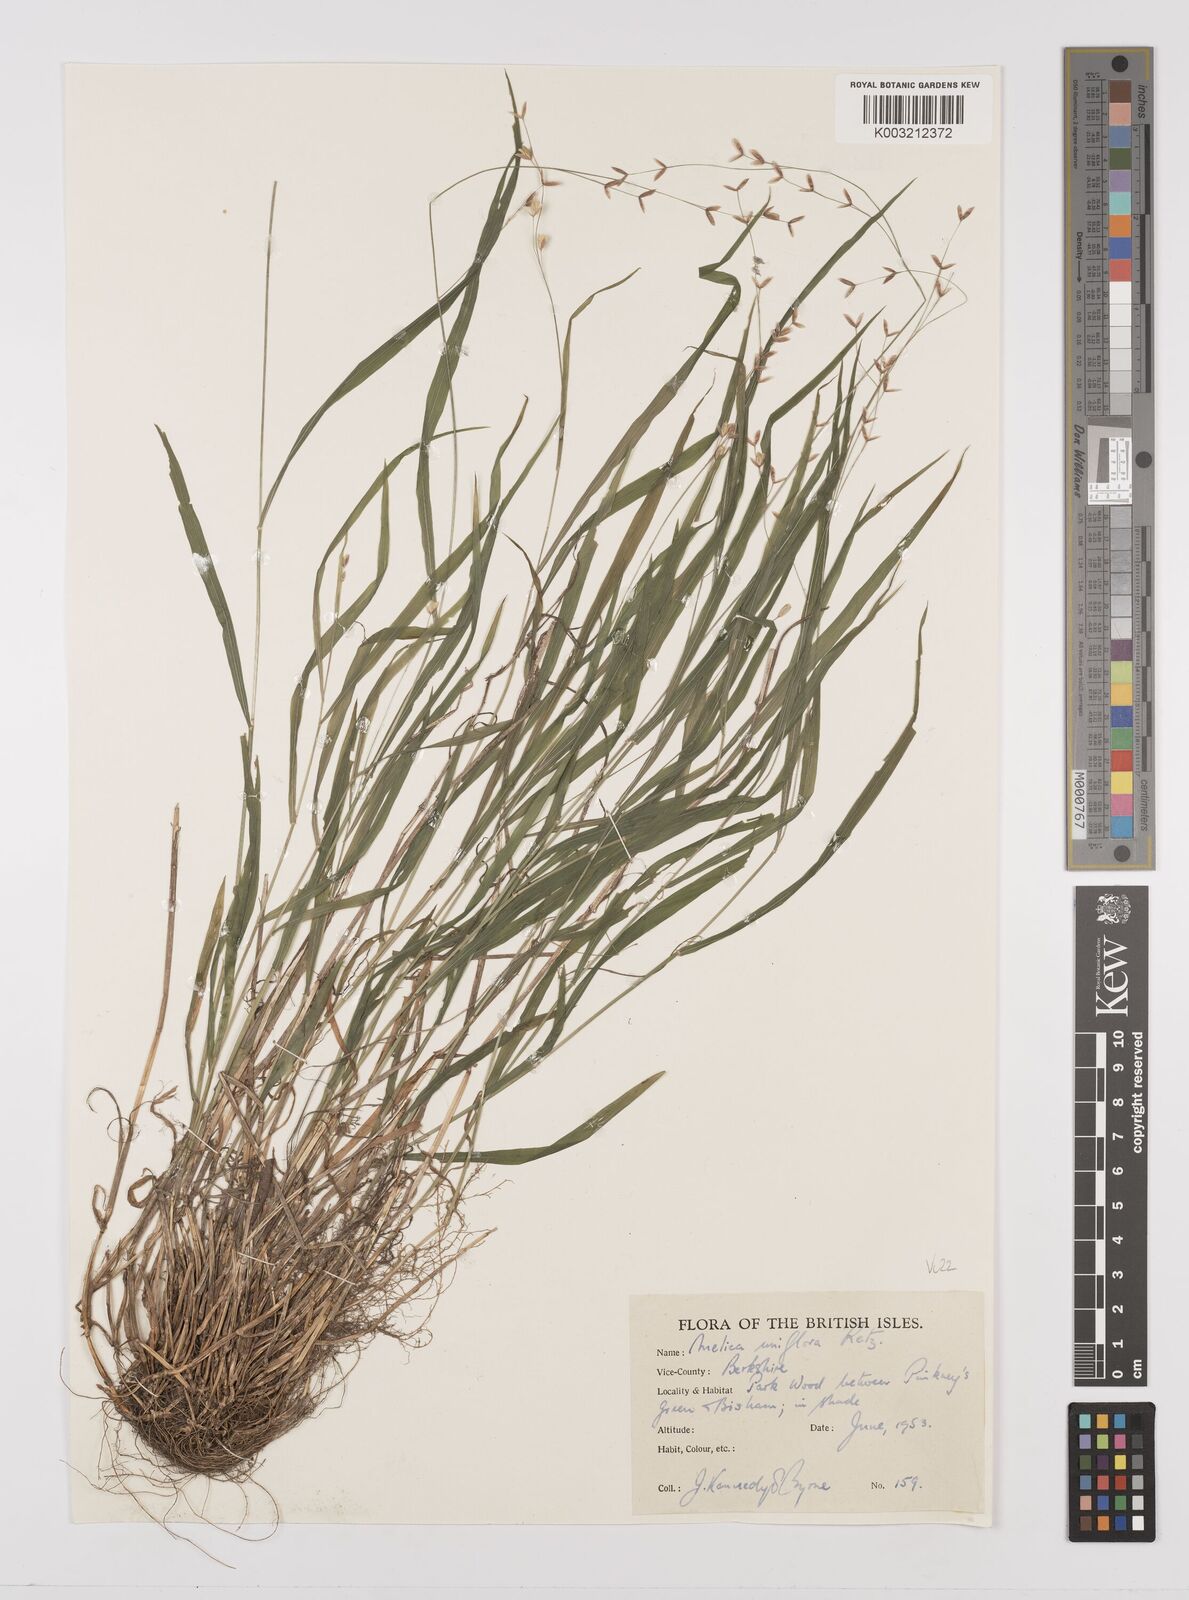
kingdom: Plantae
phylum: Tracheophyta
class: Liliopsida
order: Poales
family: Poaceae
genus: Melica
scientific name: Melica uniflora
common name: Wood melick
